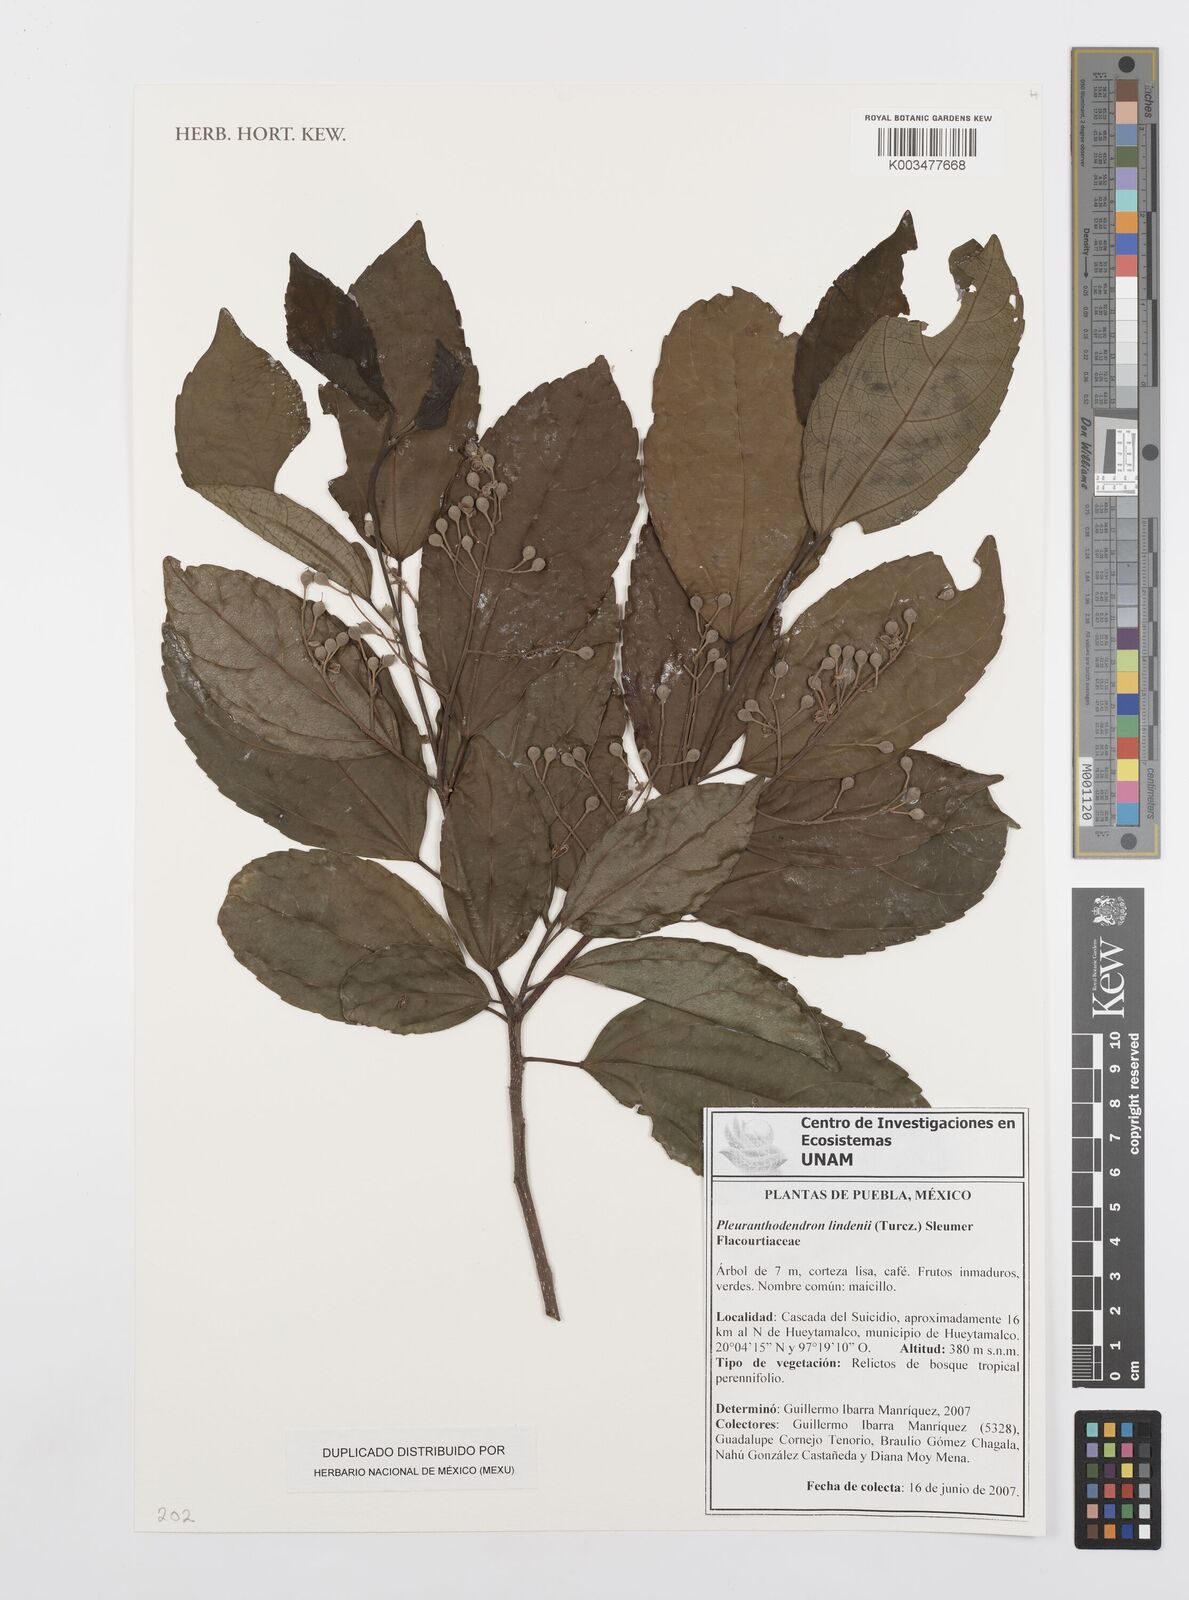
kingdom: Plantae
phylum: Tracheophyta
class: Magnoliopsida
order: Malpighiales
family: Salicaceae
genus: Pleuranthodendron
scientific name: Pleuranthodendron lindenii
